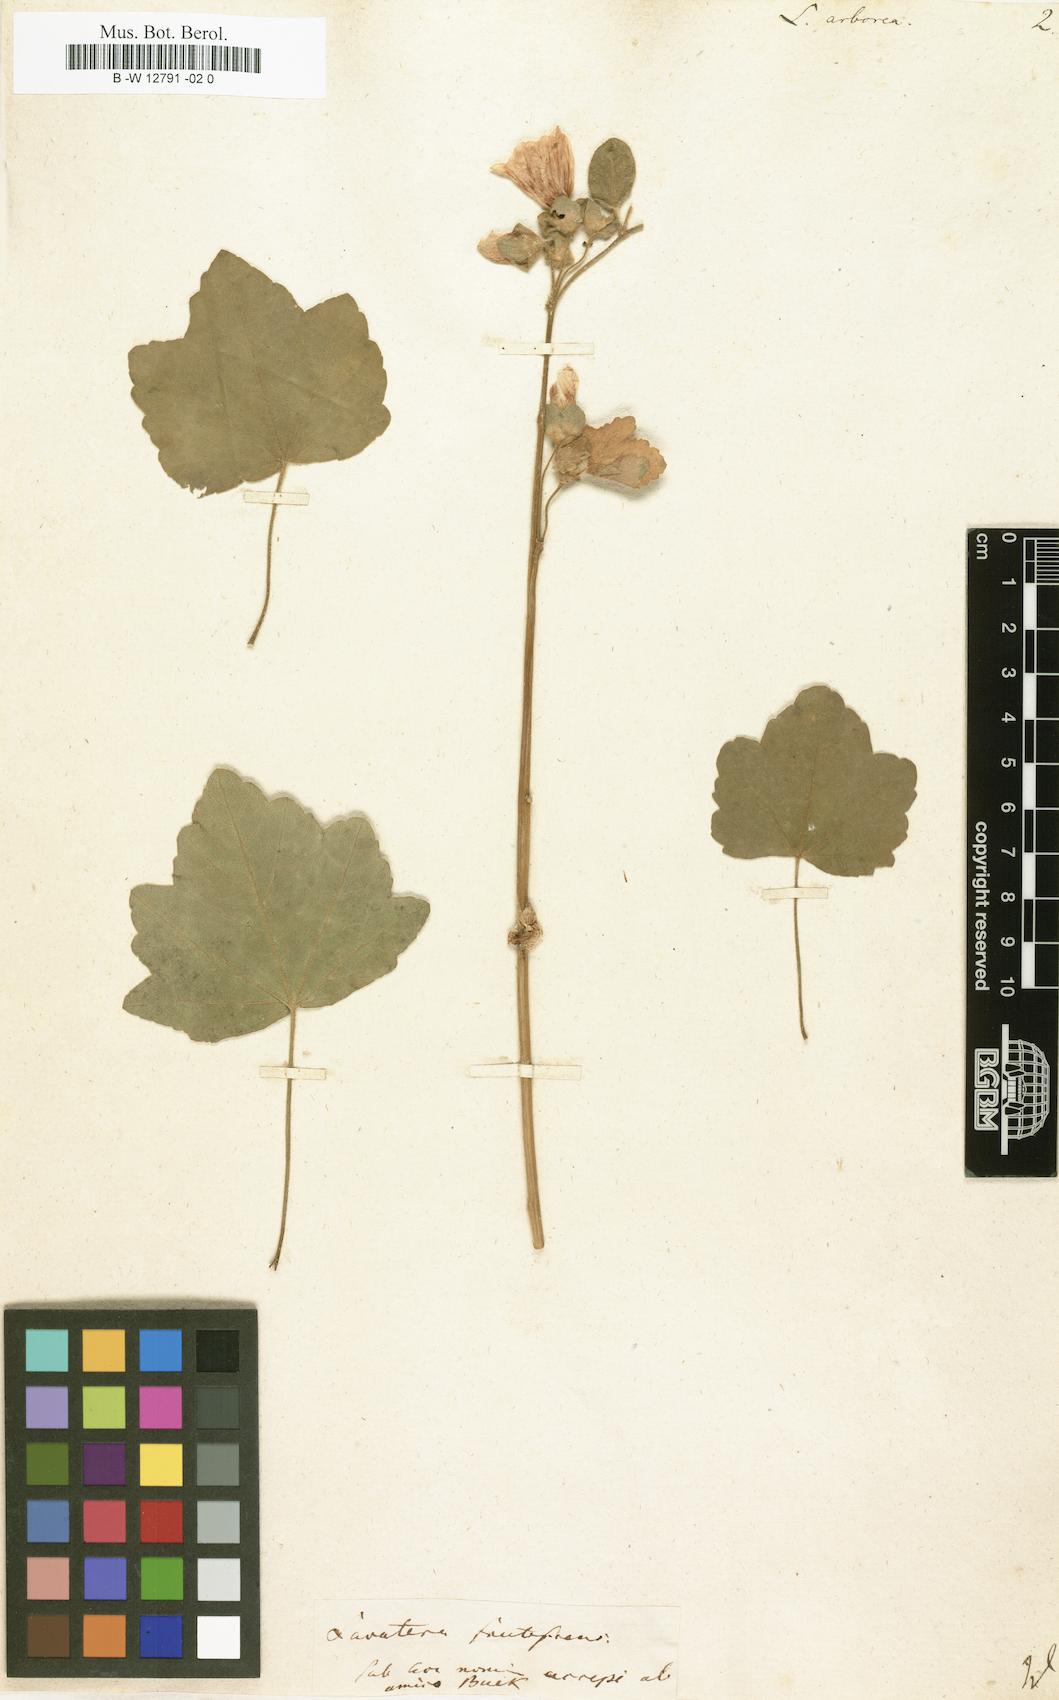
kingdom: Plantae
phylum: Tracheophyta
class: Magnoliopsida
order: Malvales
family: Malvaceae
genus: Malva
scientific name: Malva arborea
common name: Tree mallow
